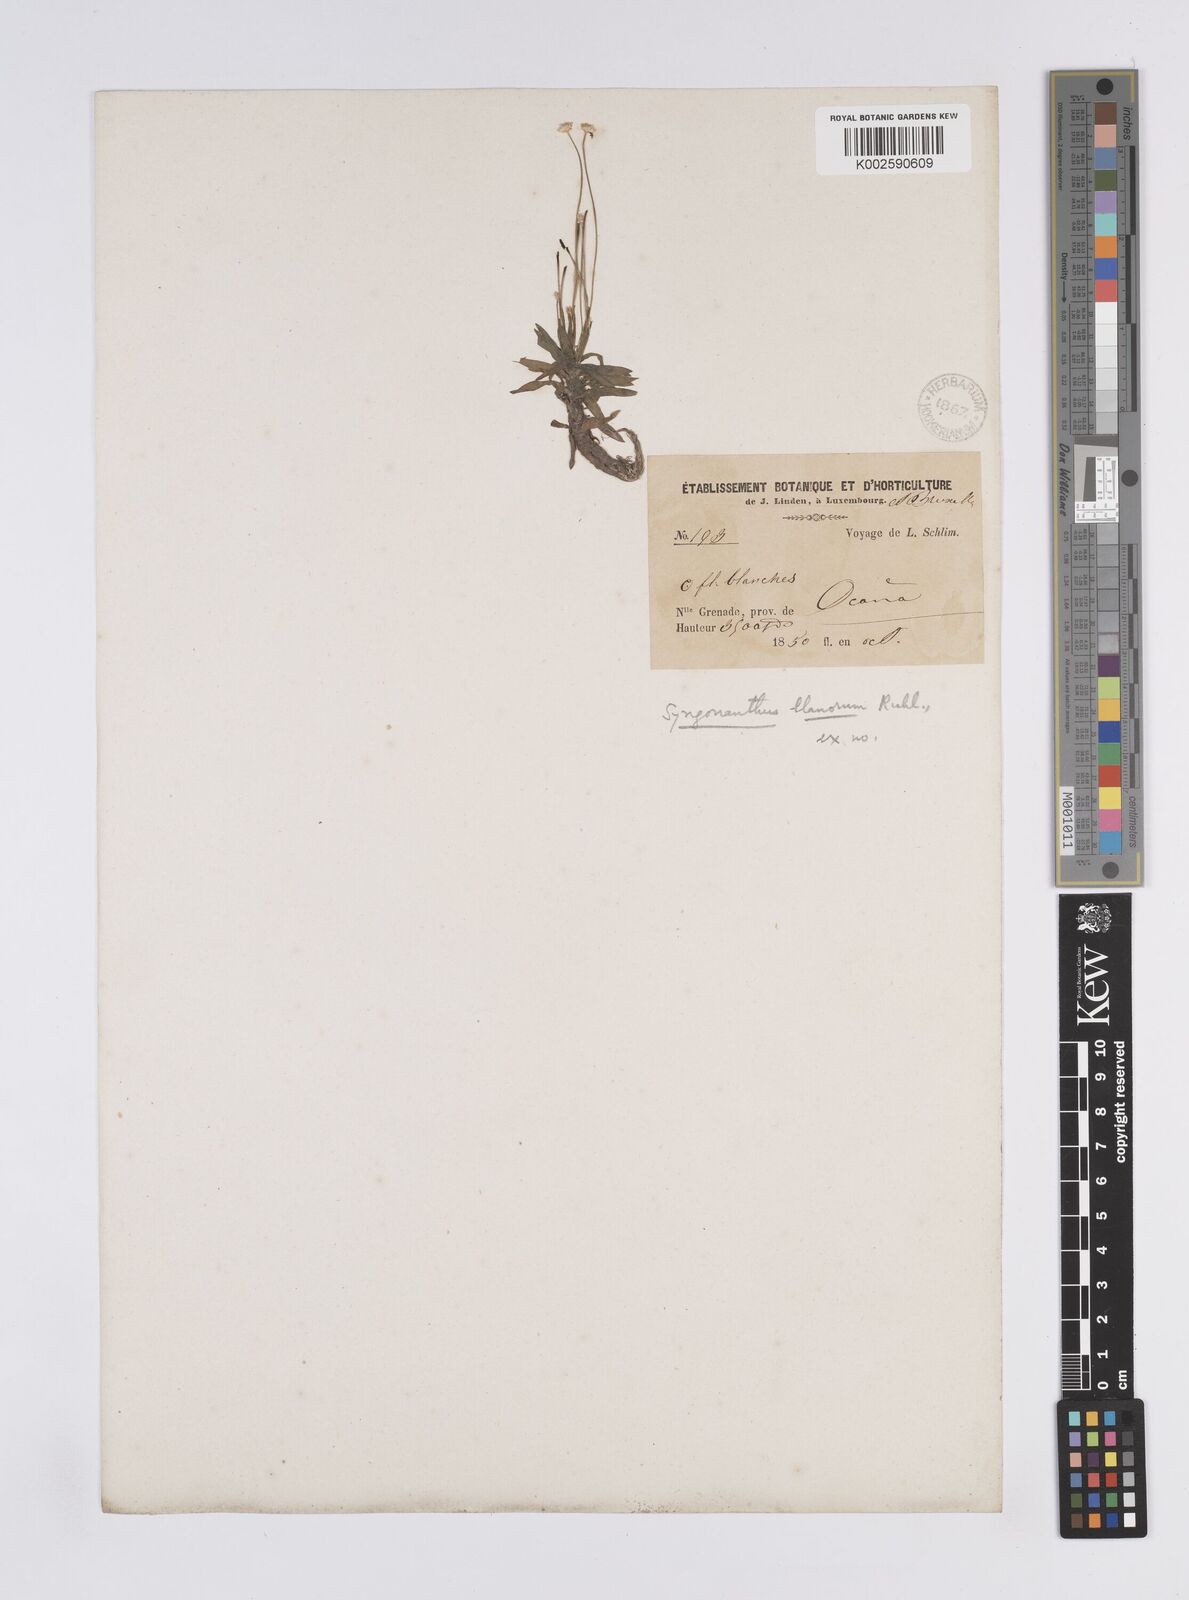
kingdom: Plantae
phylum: Tracheophyta
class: Liliopsida
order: Poales
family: Eriocaulaceae
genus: Syngonanthus
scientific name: Syngonanthus llanorum
